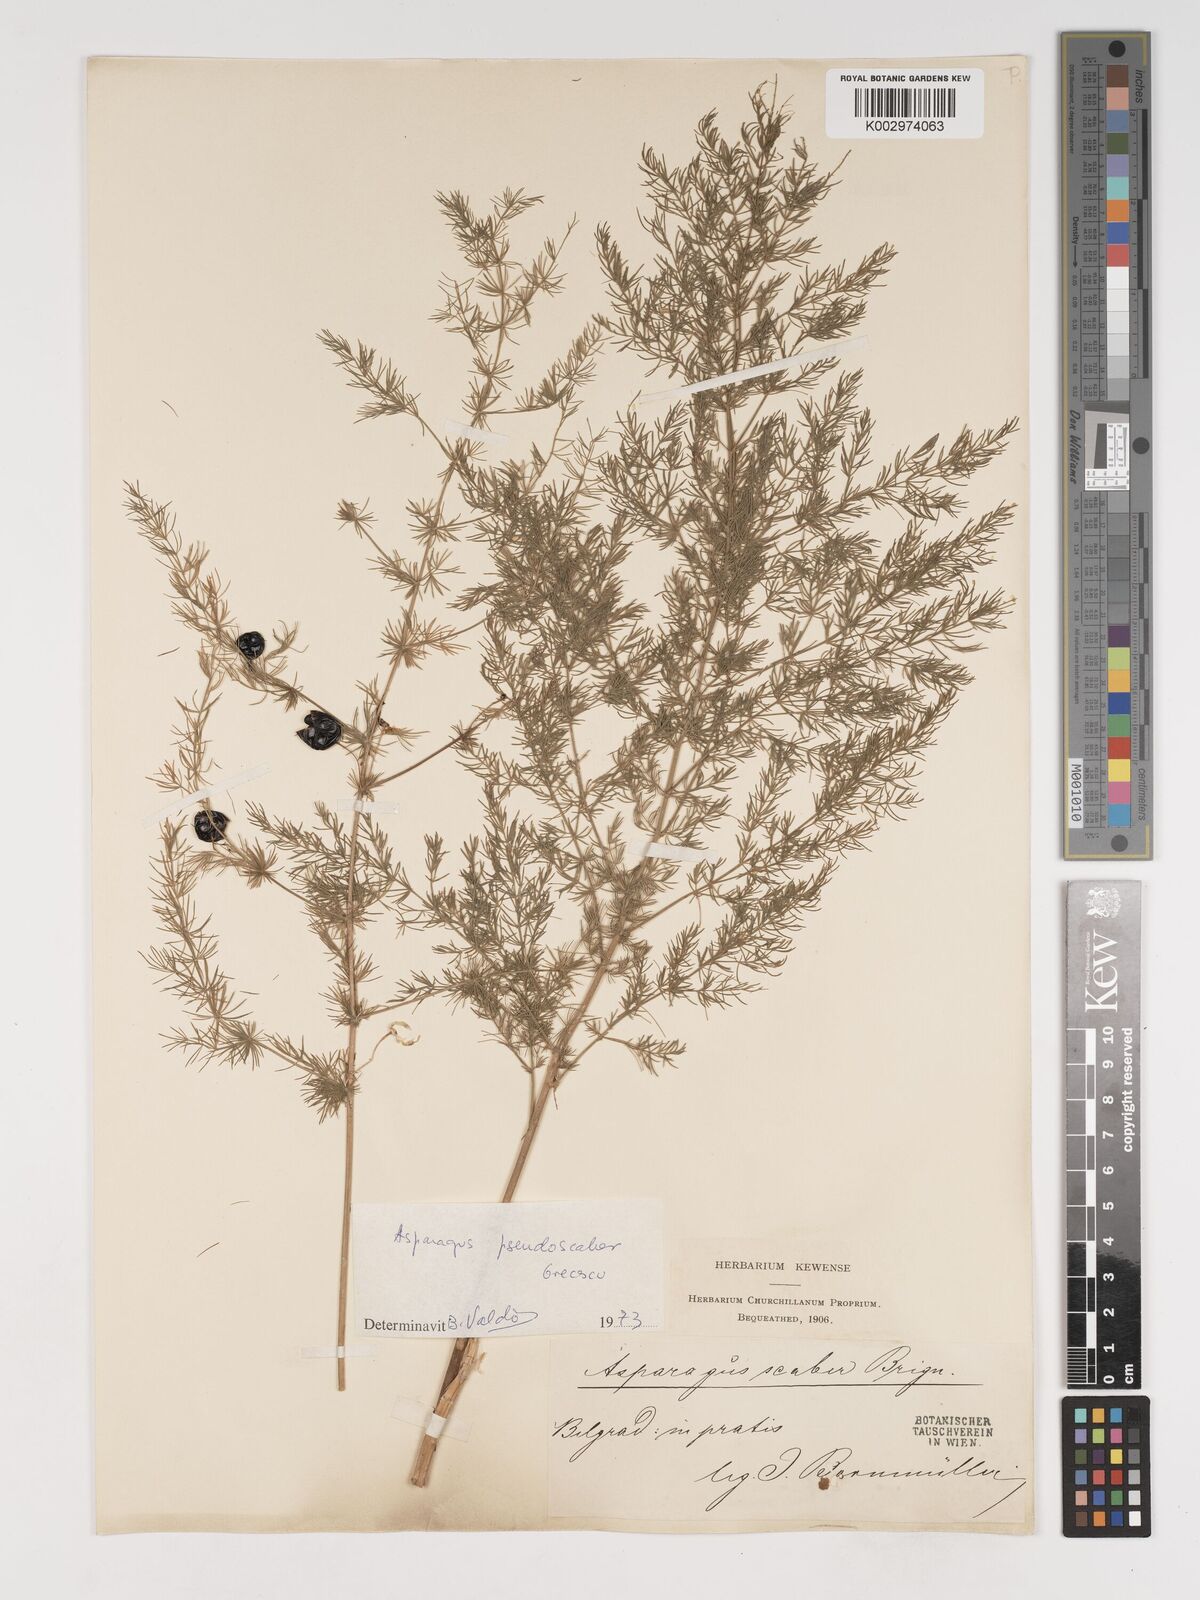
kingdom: Plantae
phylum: Tracheophyta
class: Liliopsida
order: Asparagales
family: Asparagaceae
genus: Asparagus
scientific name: Asparagus maritimus
